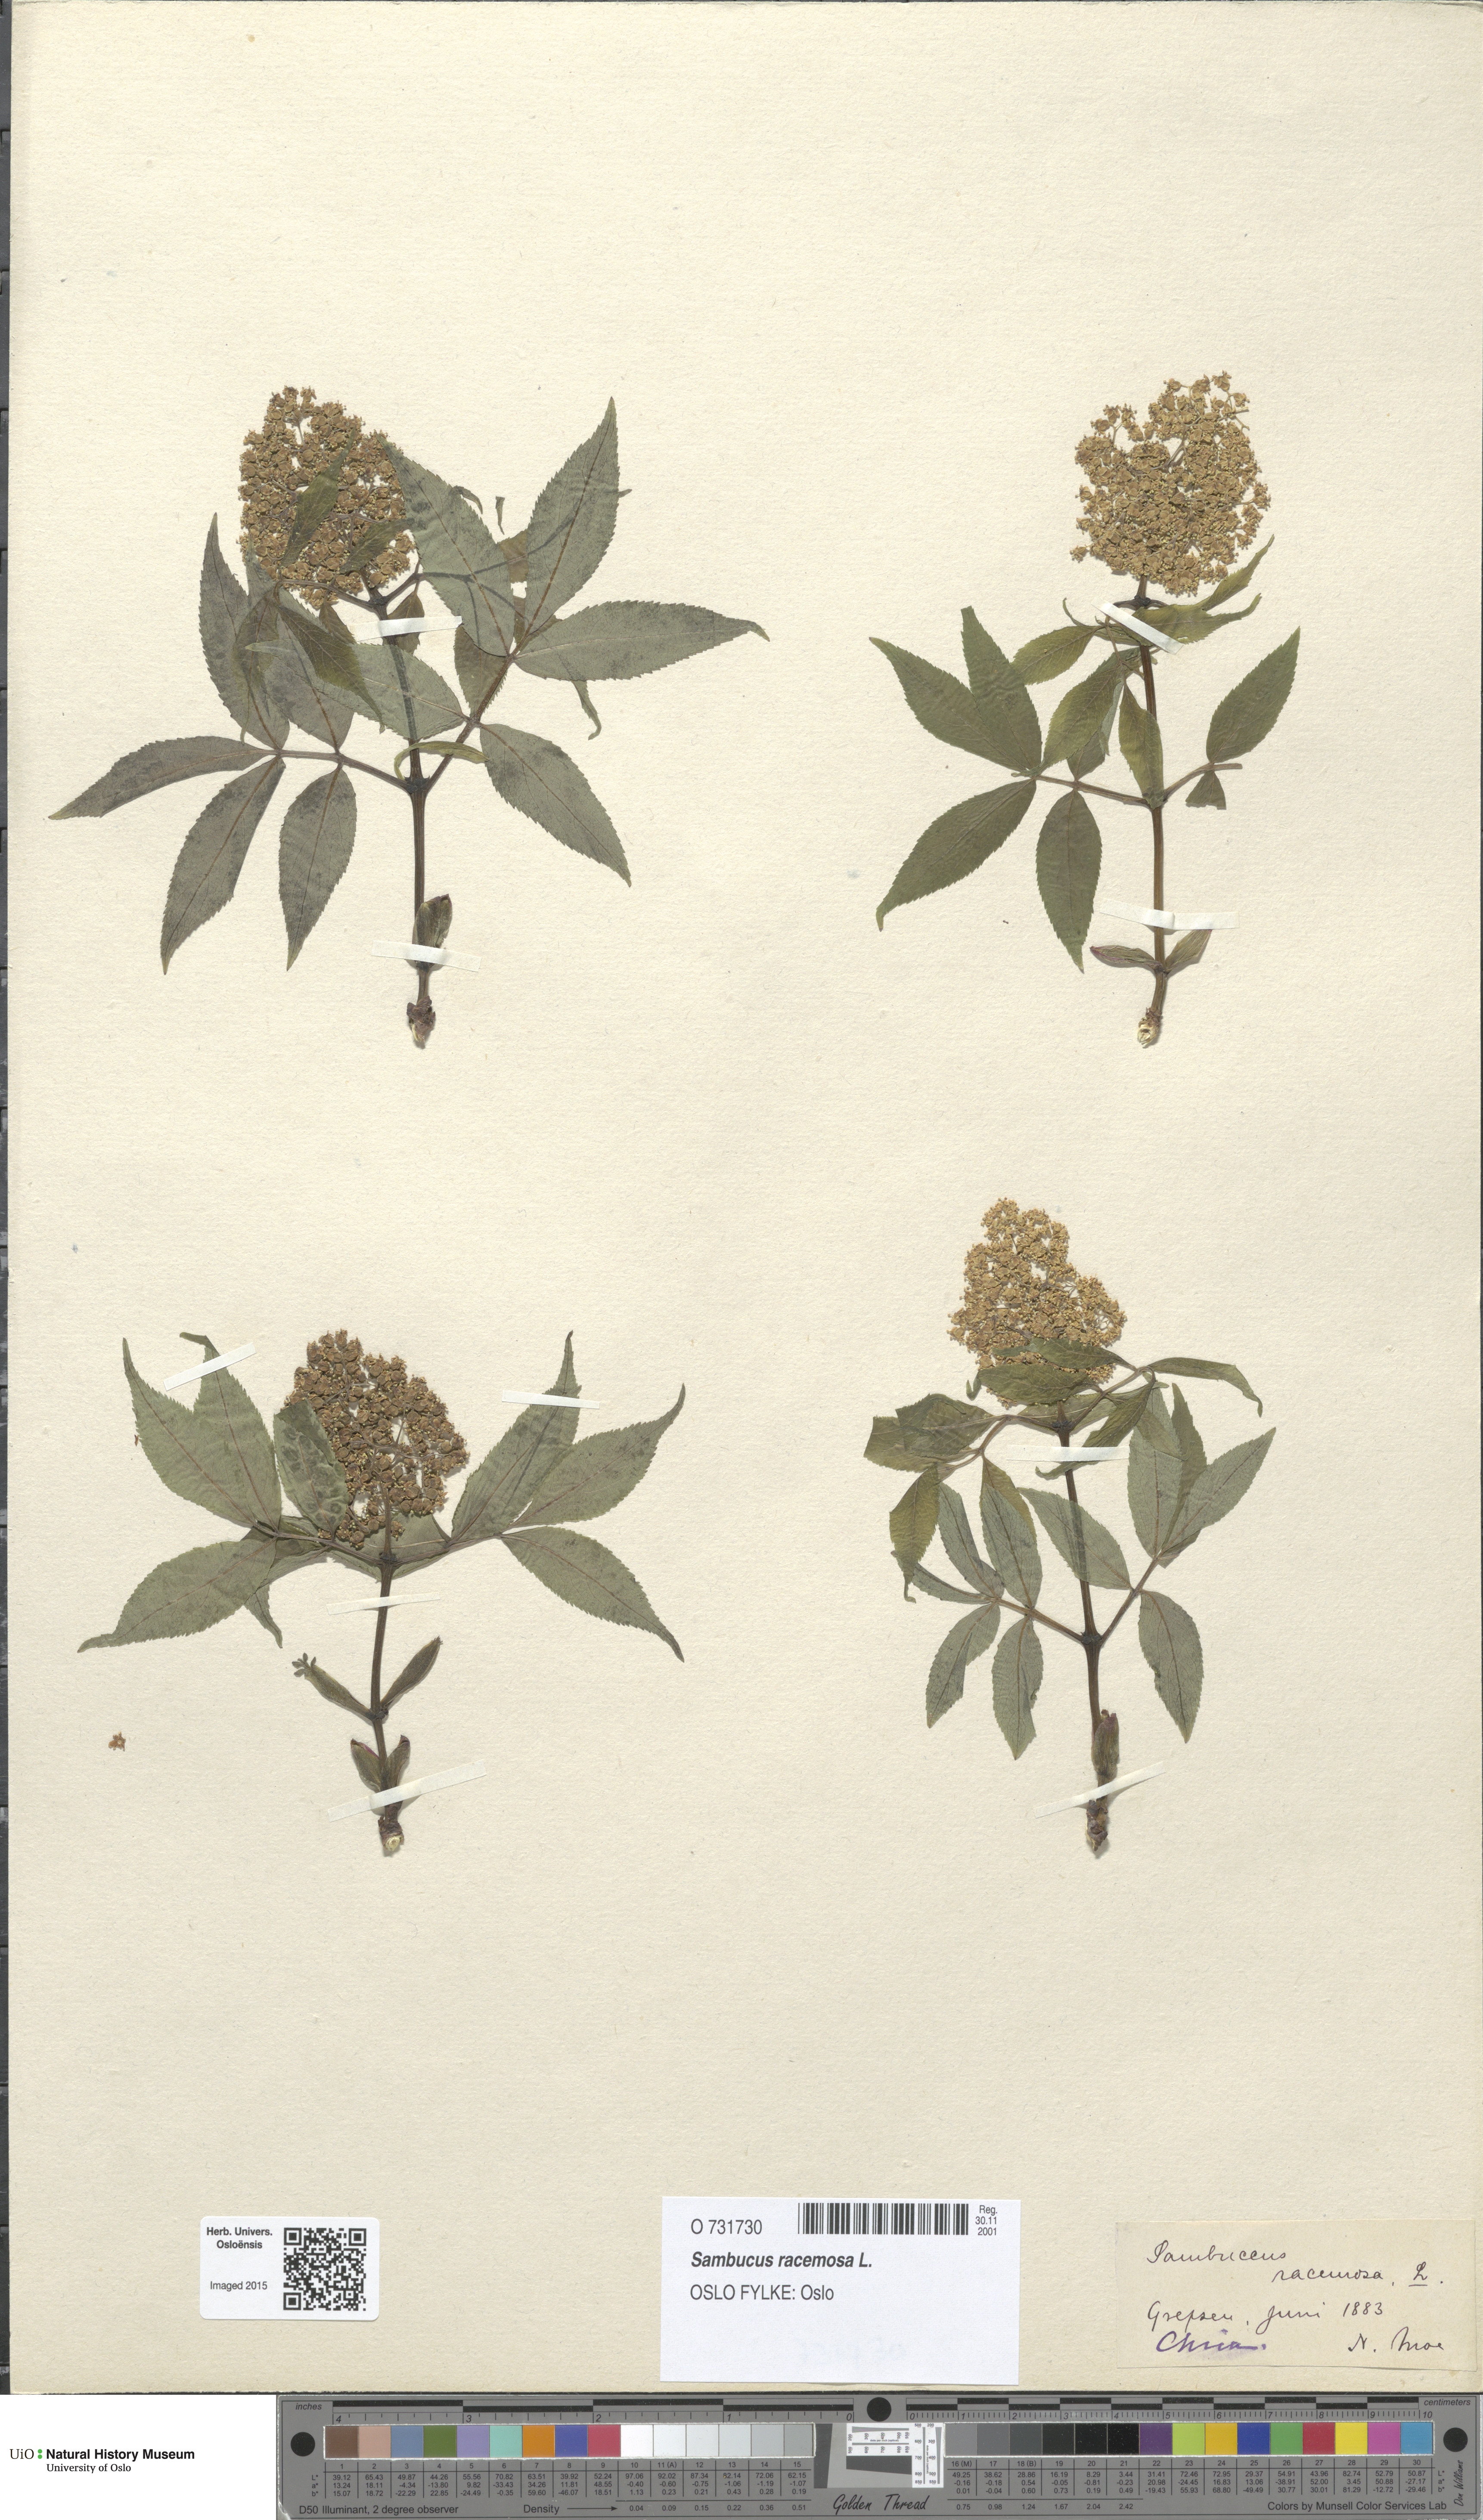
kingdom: Plantae
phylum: Tracheophyta
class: Magnoliopsida
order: Dipsacales
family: Viburnaceae
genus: Sambucus
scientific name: Sambucus racemosa
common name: Red-berried elder
